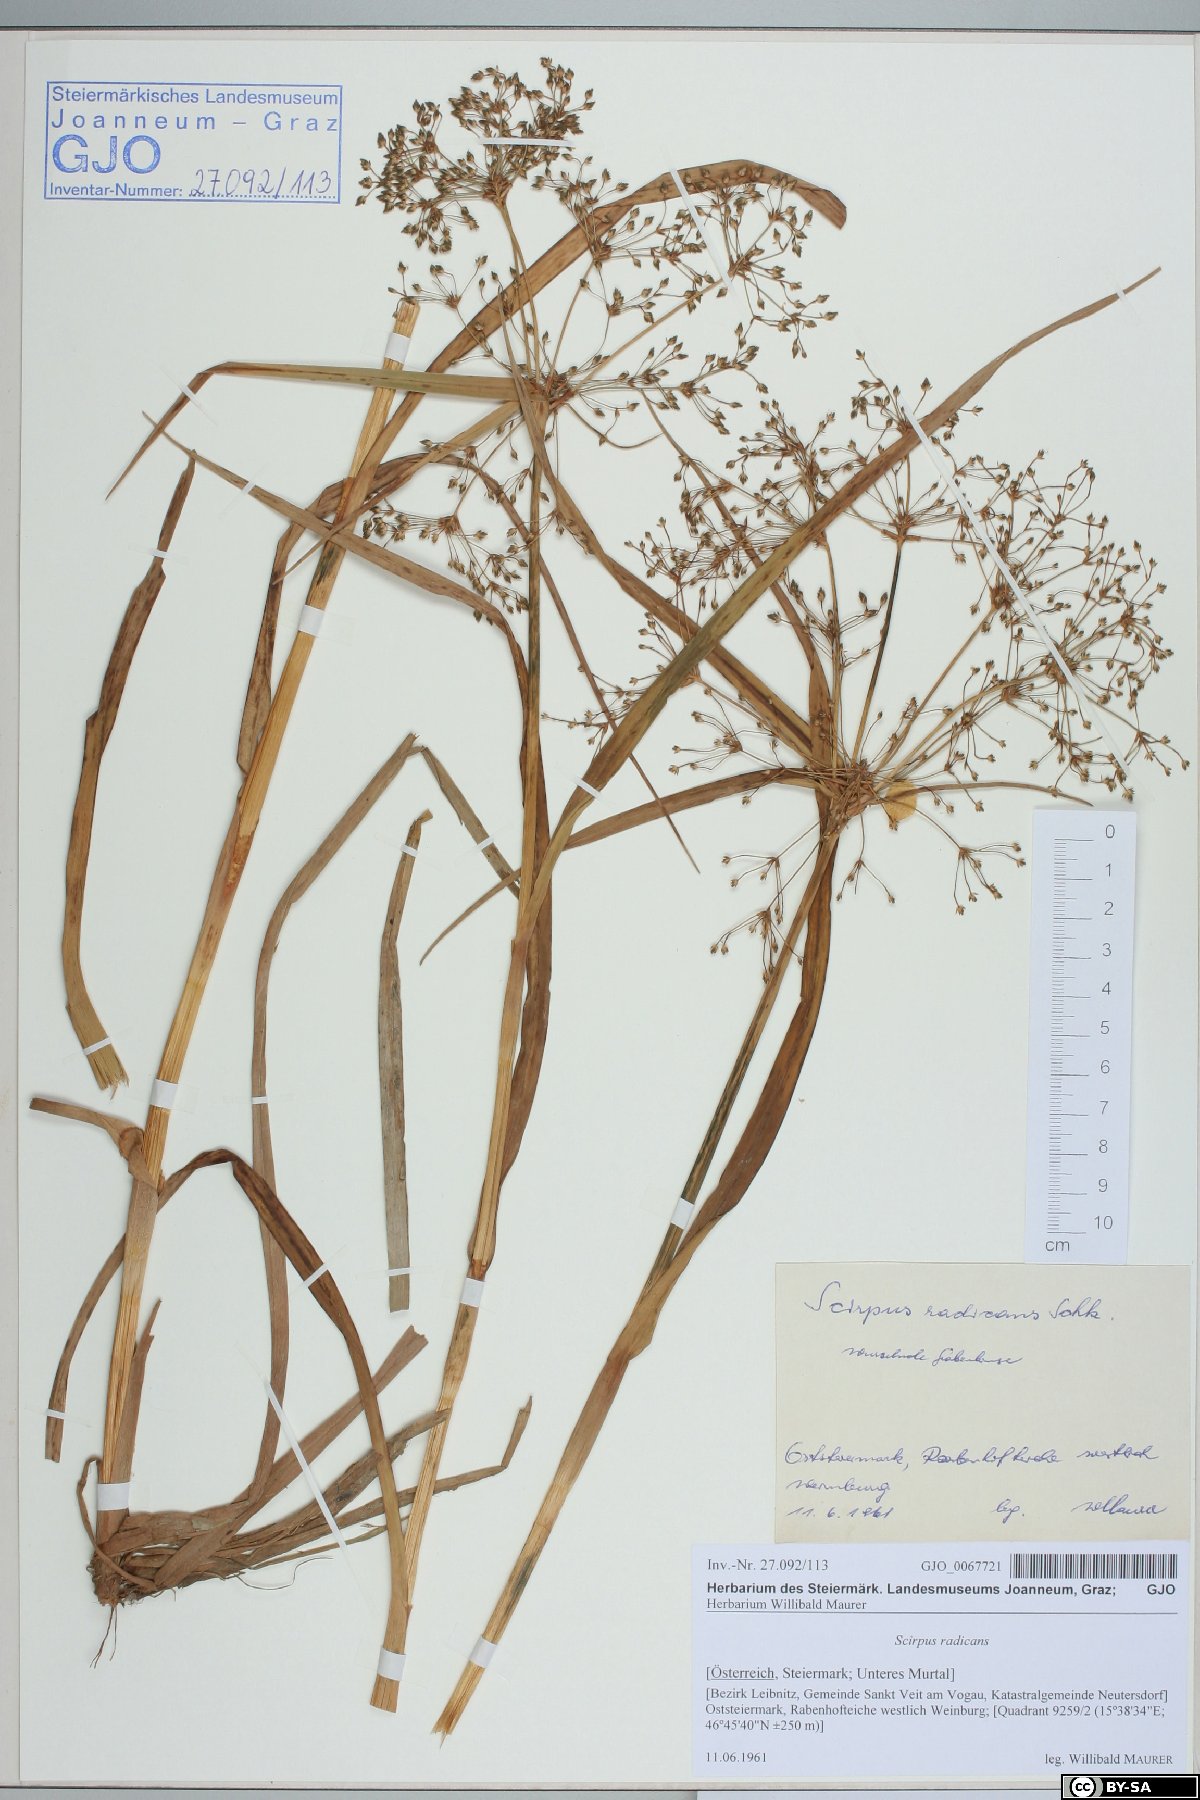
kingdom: Plantae
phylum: Tracheophyta
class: Liliopsida
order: Poales
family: Cyperaceae
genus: Scirpus
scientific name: Scirpus radicans
